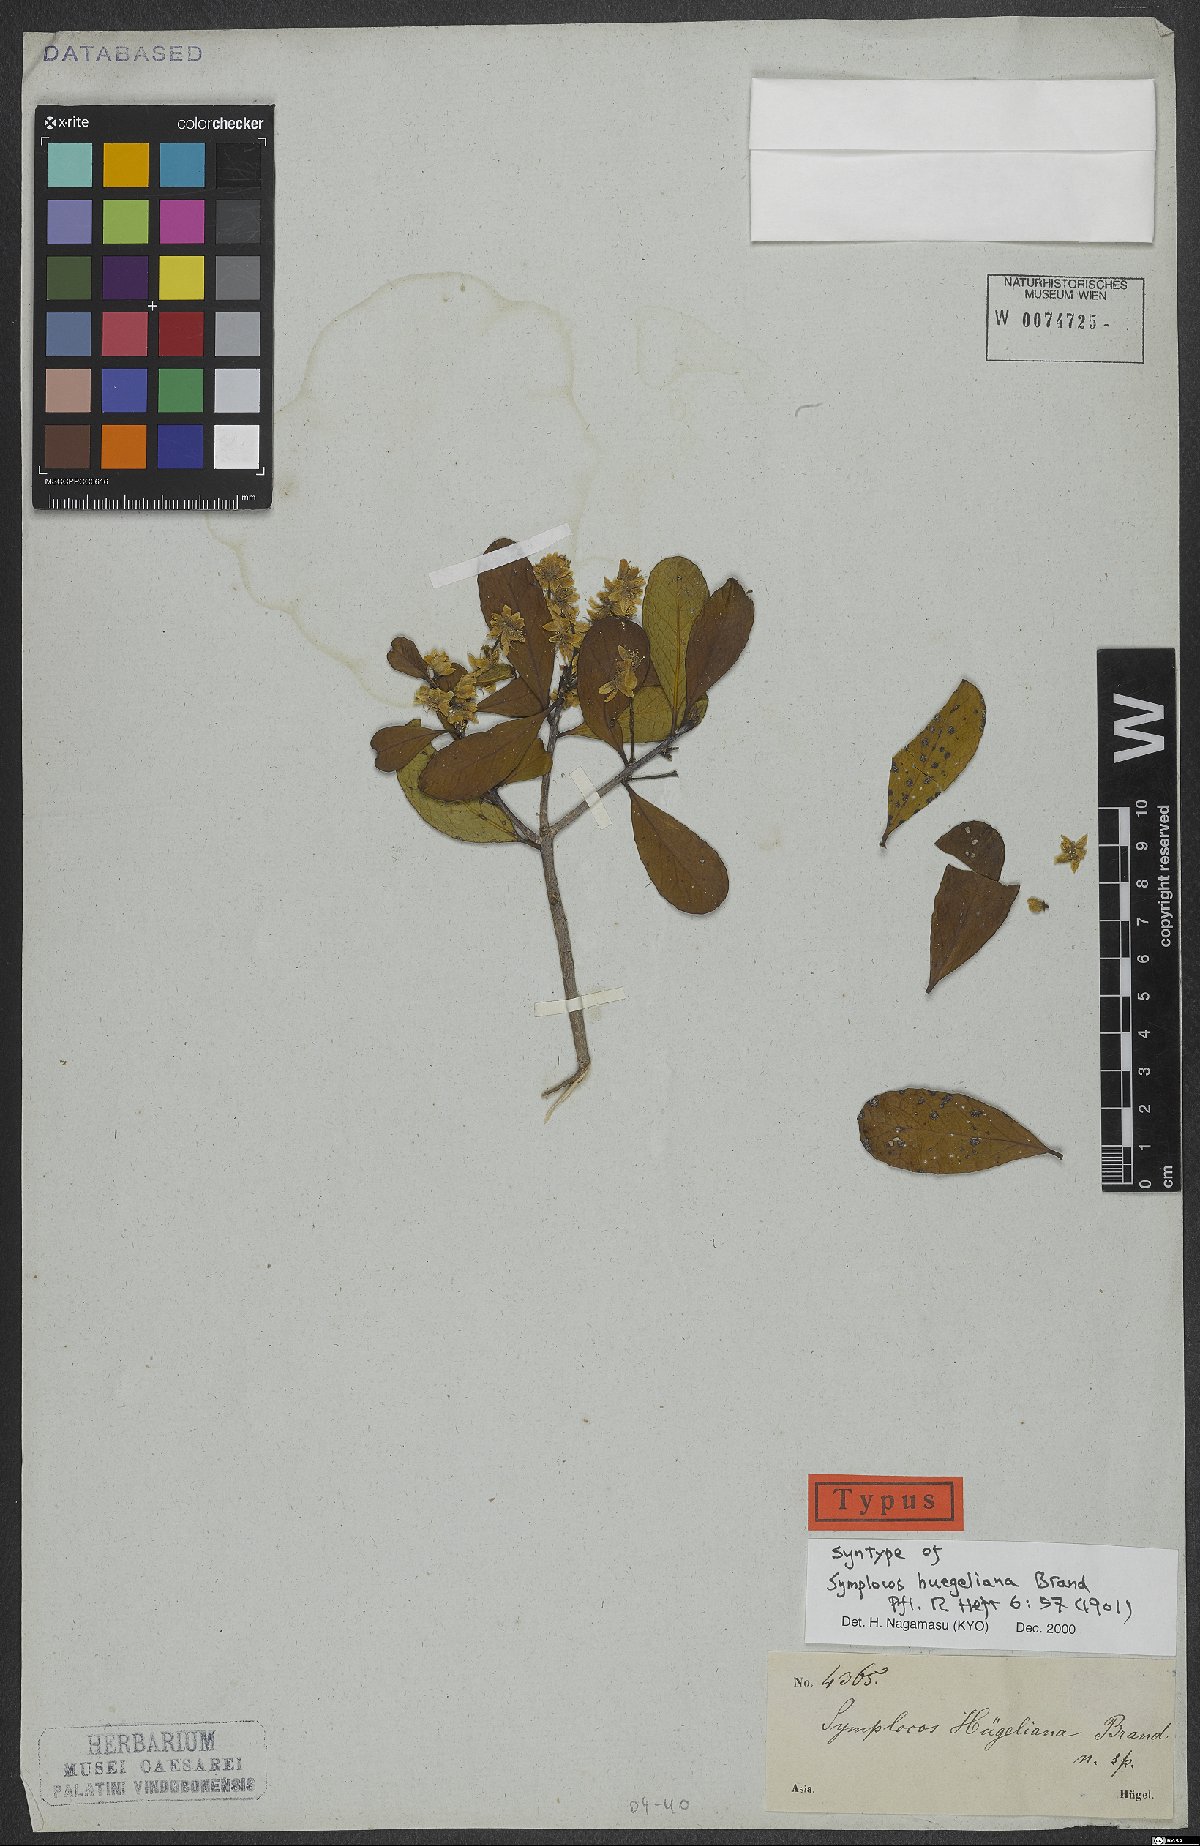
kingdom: Plantae
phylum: Tracheophyta
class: Magnoliopsida
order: Ericales
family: Symplocaceae
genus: Symplocos
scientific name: Symplocos huegeliana
